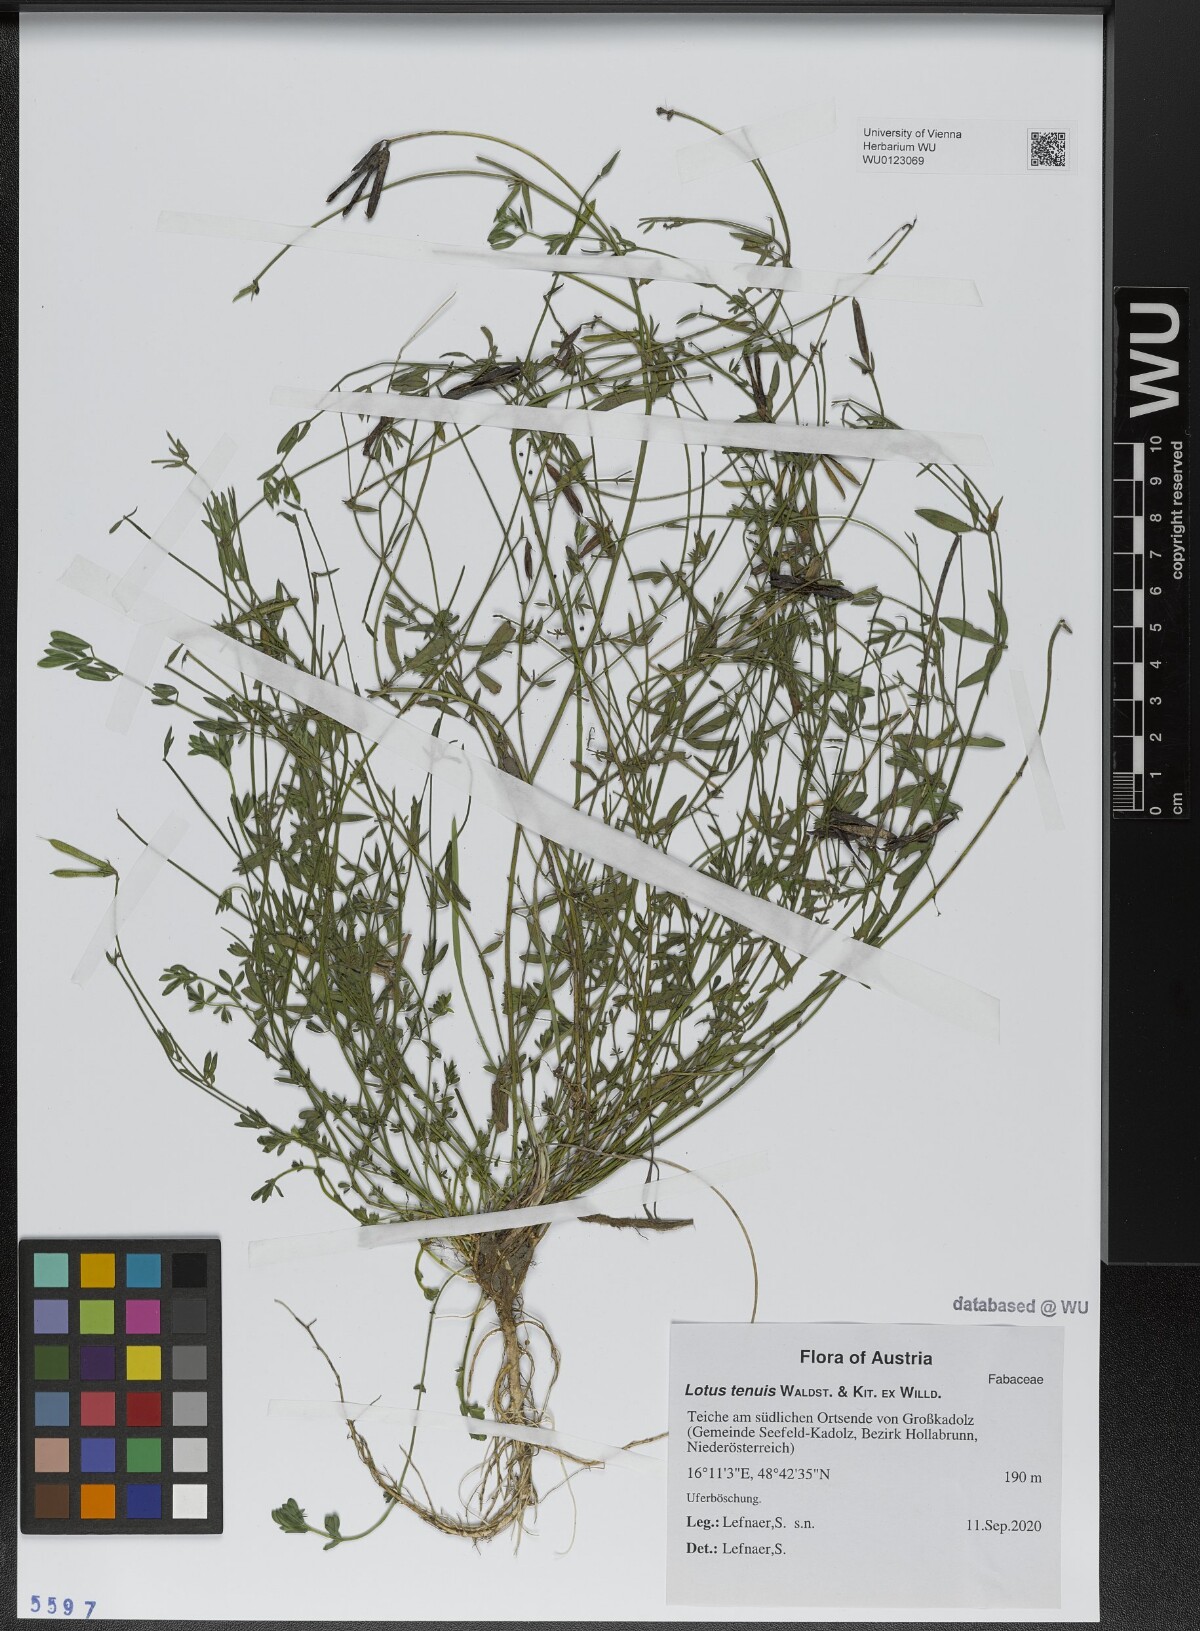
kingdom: Plantae
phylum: Tracheophyta
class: Magnoliopsida
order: Fabales
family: Fabaceae
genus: Lotus
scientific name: Lotus tenuis
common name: Narrow-leaved bird's-foot-trefoil
